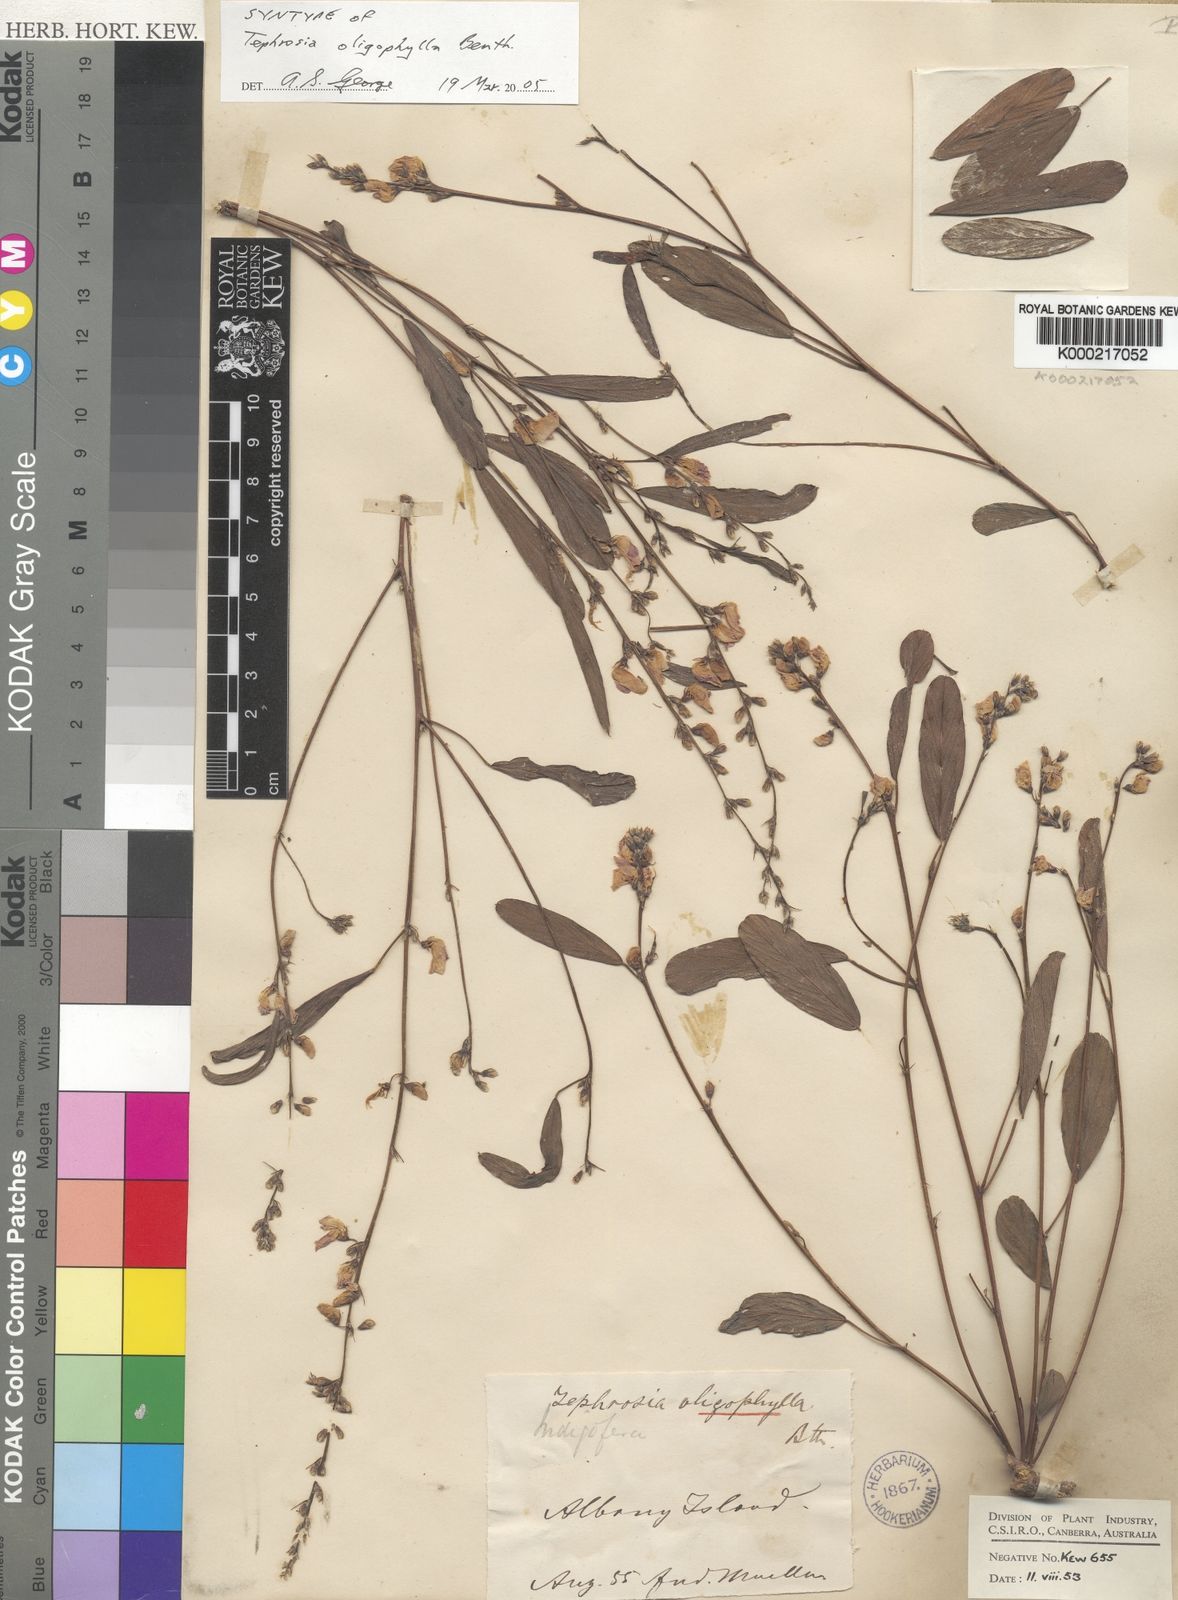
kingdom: Plantae
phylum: Tracheophyta
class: Magnoliopsida
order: Fabales
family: Fabaceae
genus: Tephrosia
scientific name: Tephrosia oligophylla
